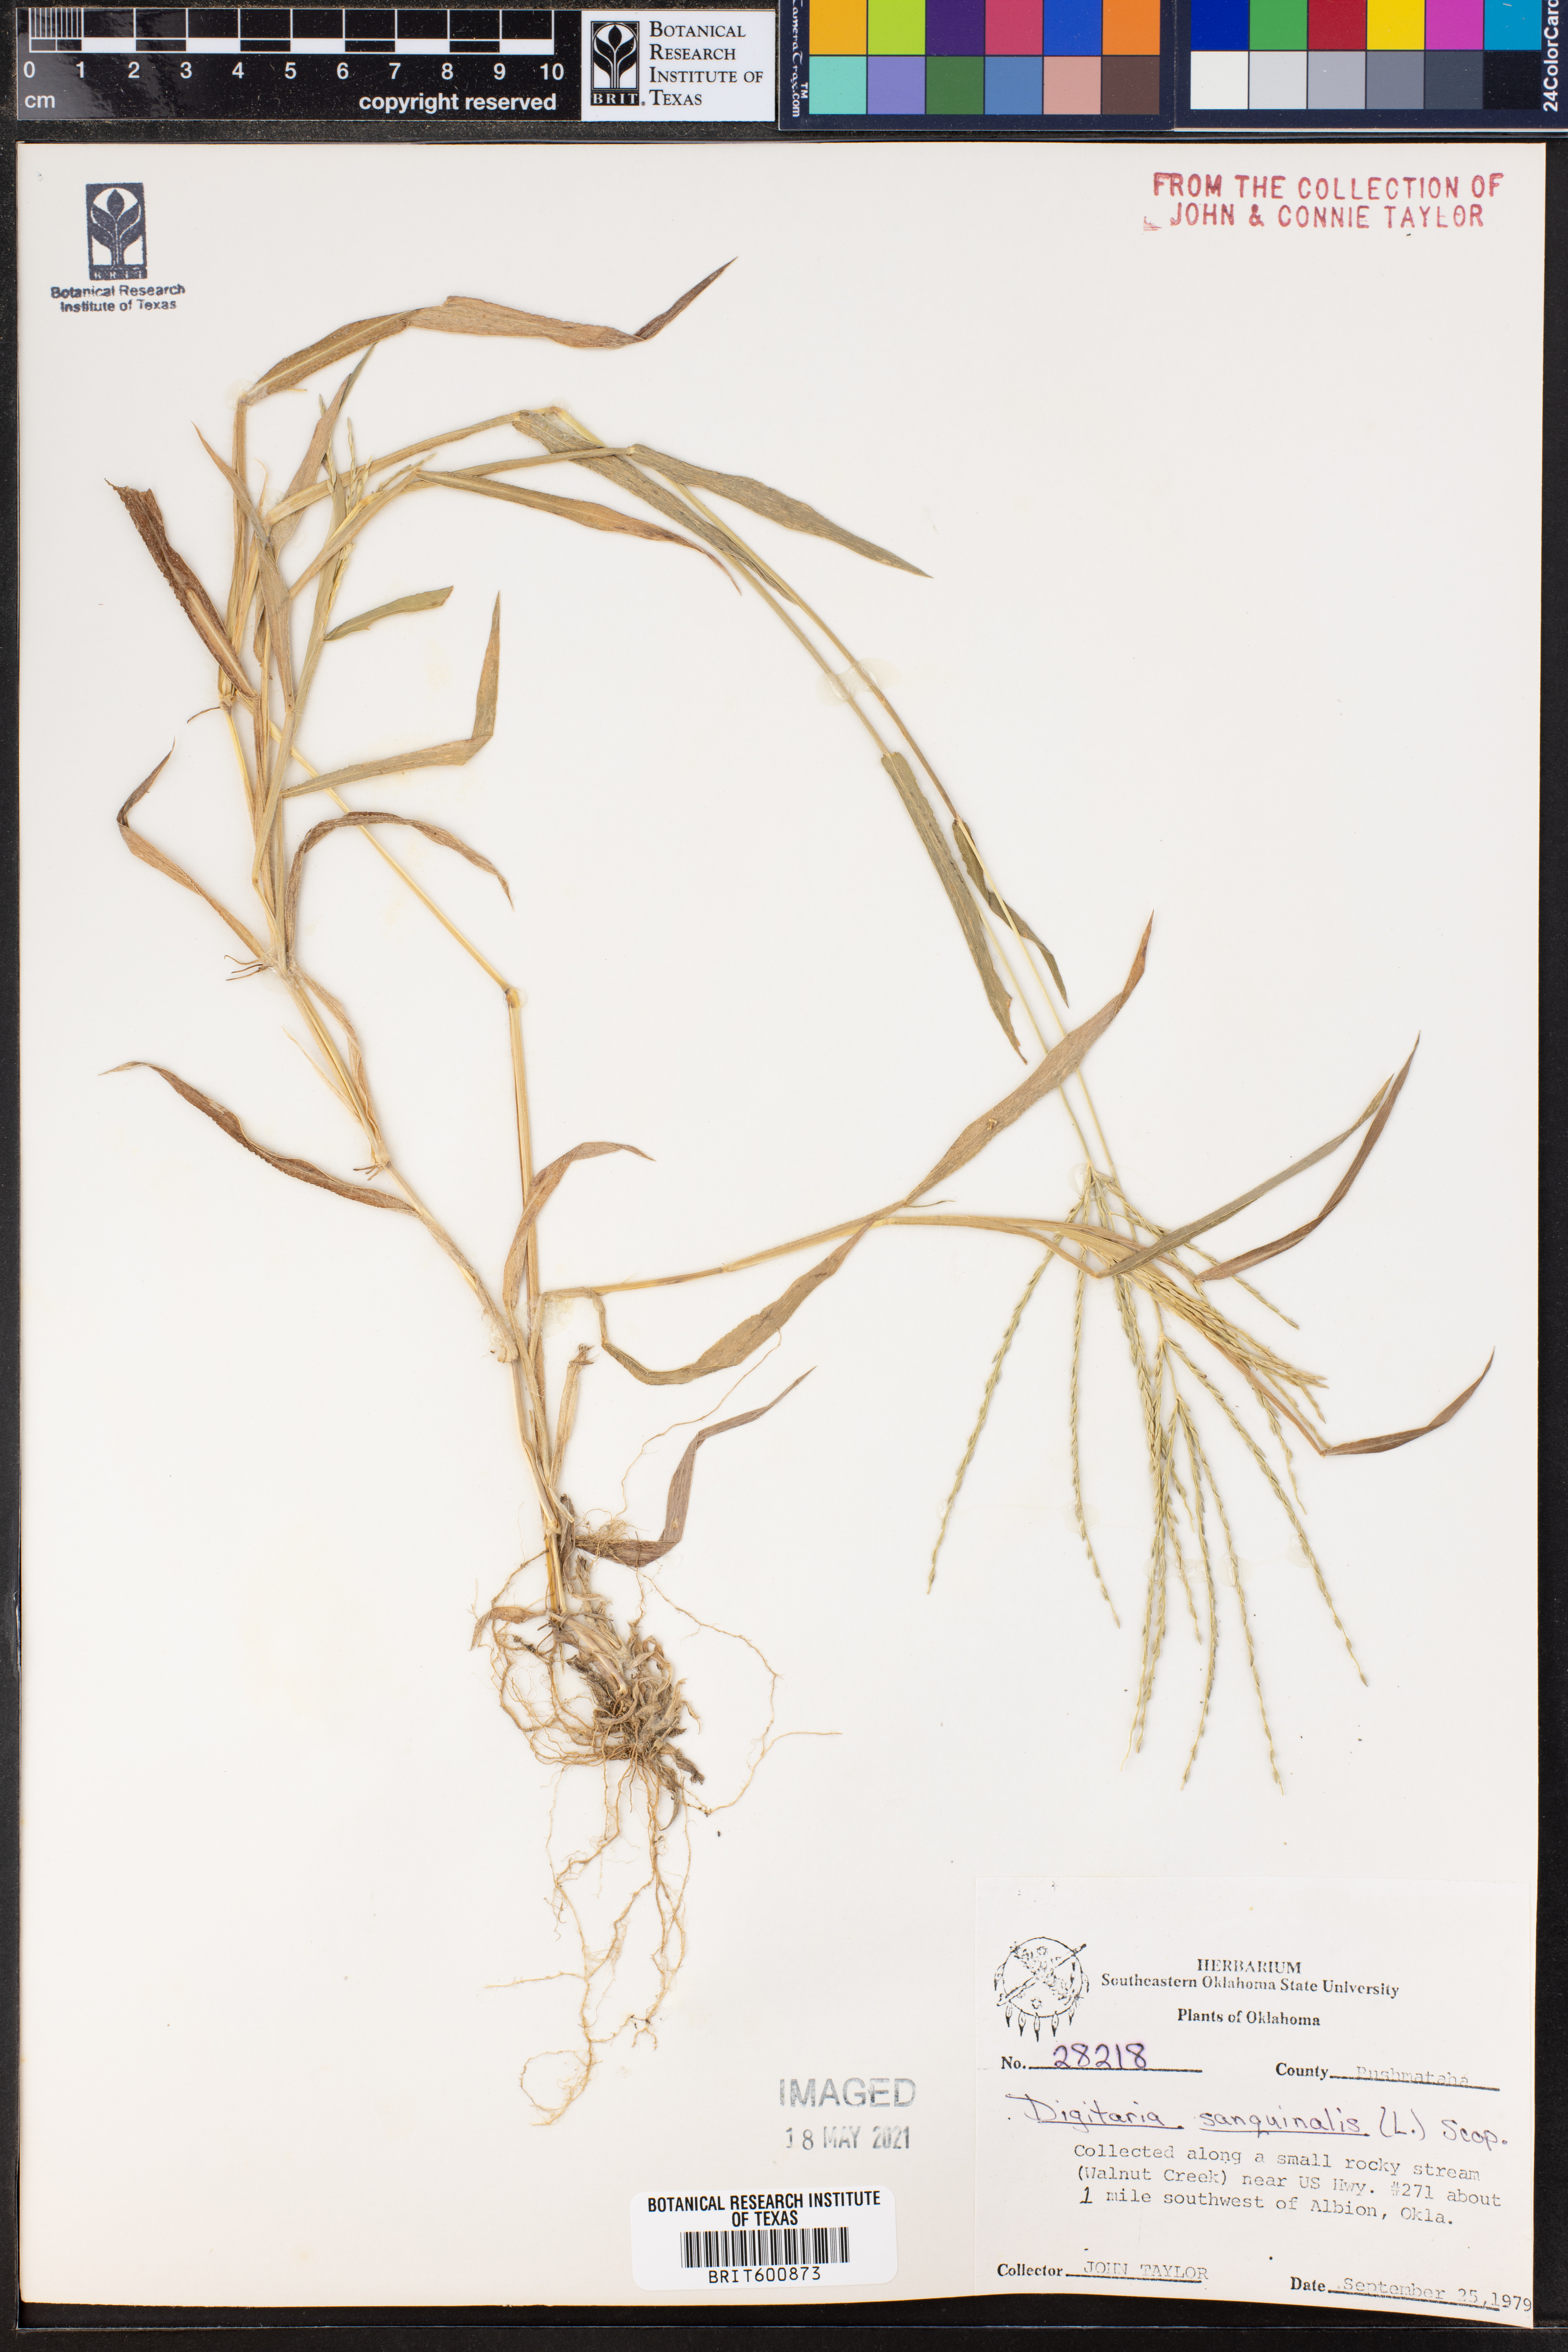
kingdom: Plantae
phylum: Tracheophyta
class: Liliopsida
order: Poales
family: Poaceae
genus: Digitaria
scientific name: Digitaria sanguinalis
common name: Hairy crabgrass
